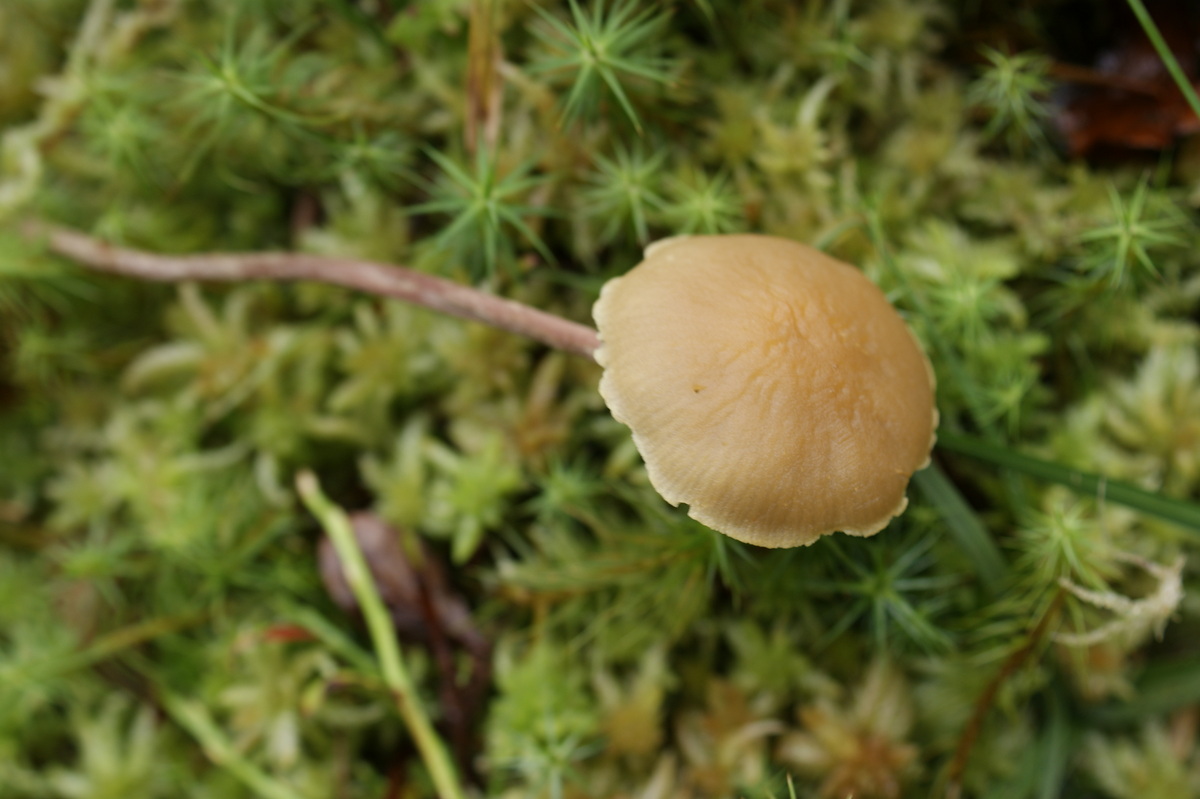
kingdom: Fungi
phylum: Basidiomycota
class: Agaricomycetes
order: Agaricales
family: Strophariaceae
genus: Bogbodia
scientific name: Bogbodia uda
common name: tørve-svovlhat
